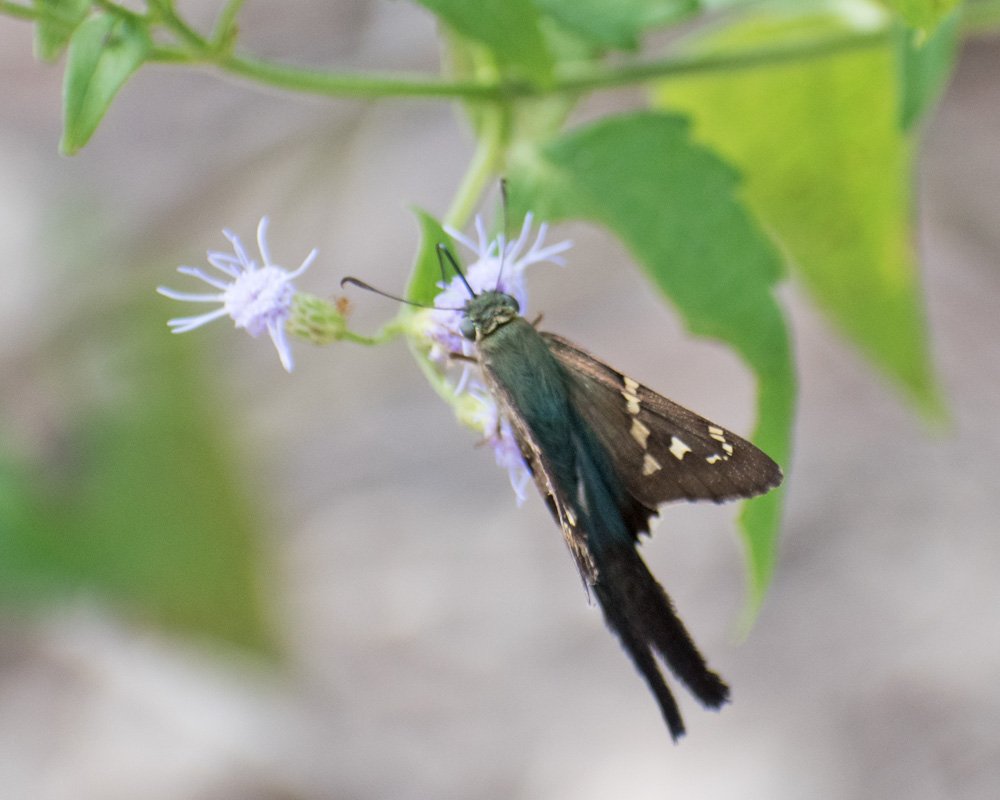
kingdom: Animalia
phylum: Arthropoda
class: Insecta
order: Lepidoptera
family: Hesperiidae
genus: Urbanus
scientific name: Urbanus proteus
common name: Long-tailed Skipper
